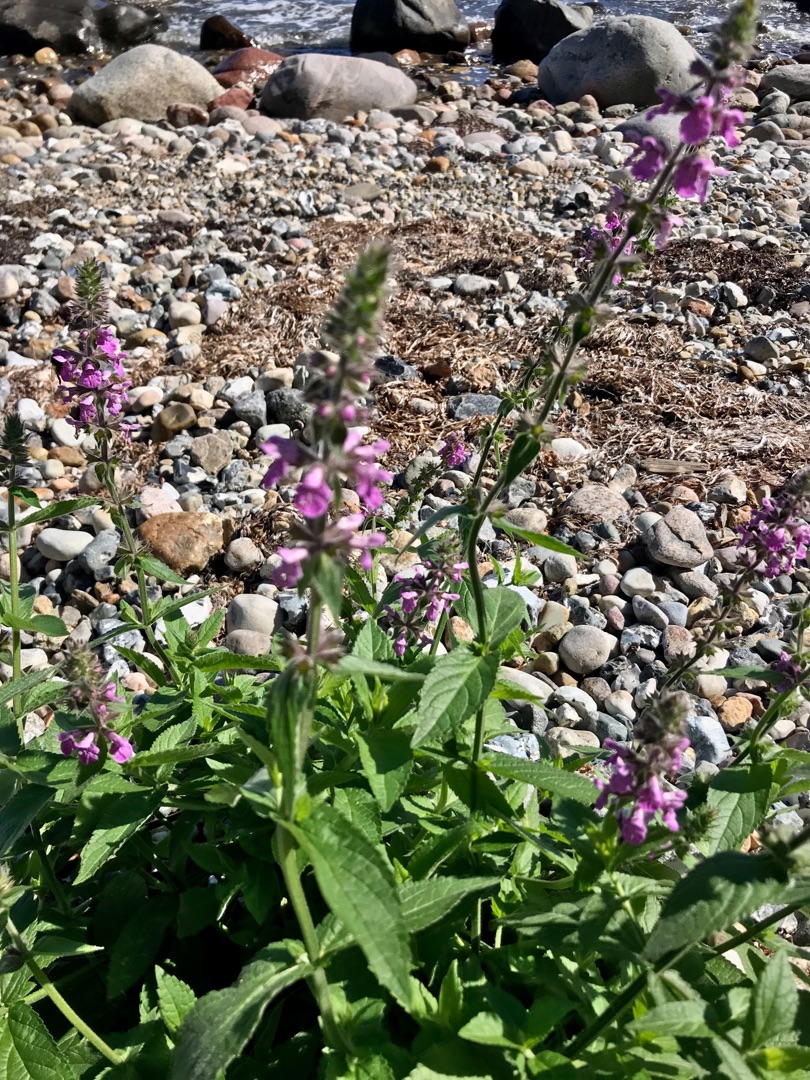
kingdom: Plantae
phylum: Tracheophyta
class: Magnoliopsida
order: Lamiales
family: Lamiaceae
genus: Stachys
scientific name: Stachys palustris
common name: Kær-galtetand
